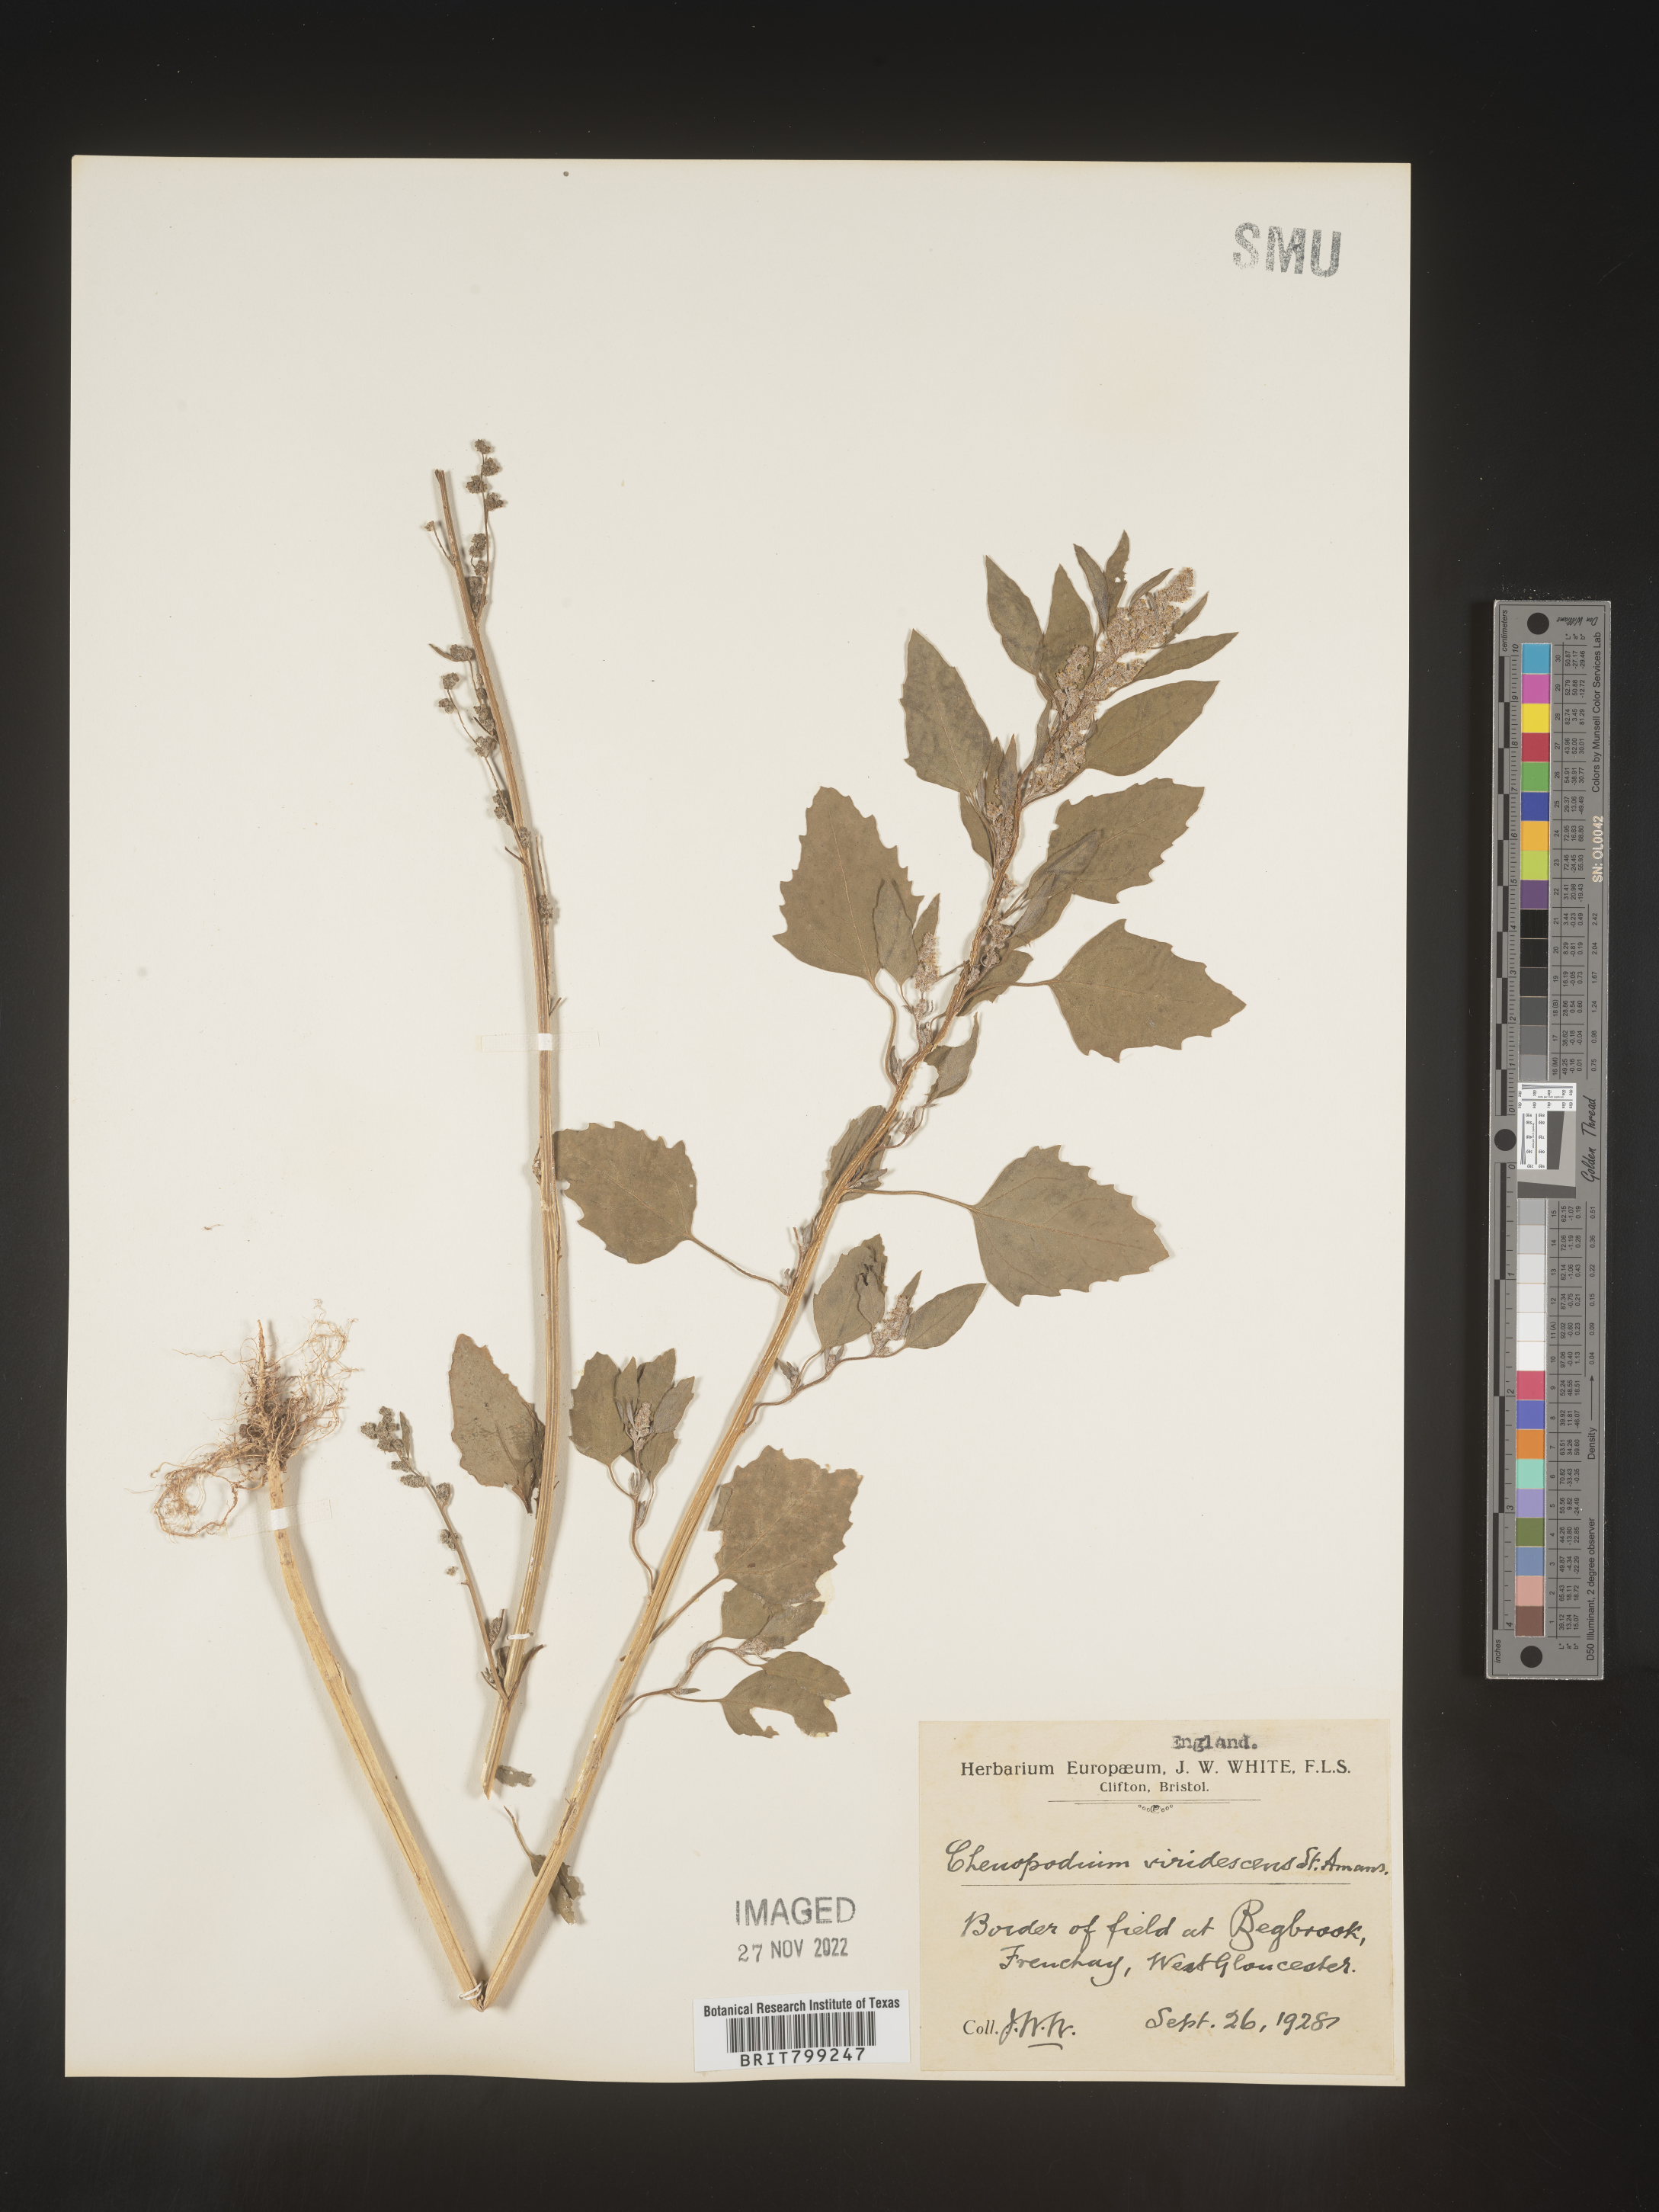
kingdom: Plantae
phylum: Tracheophyta
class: Magnoliopsida
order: Caryophyllales
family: Amaranthaceae
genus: Chenopodium
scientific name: Chenopodium
